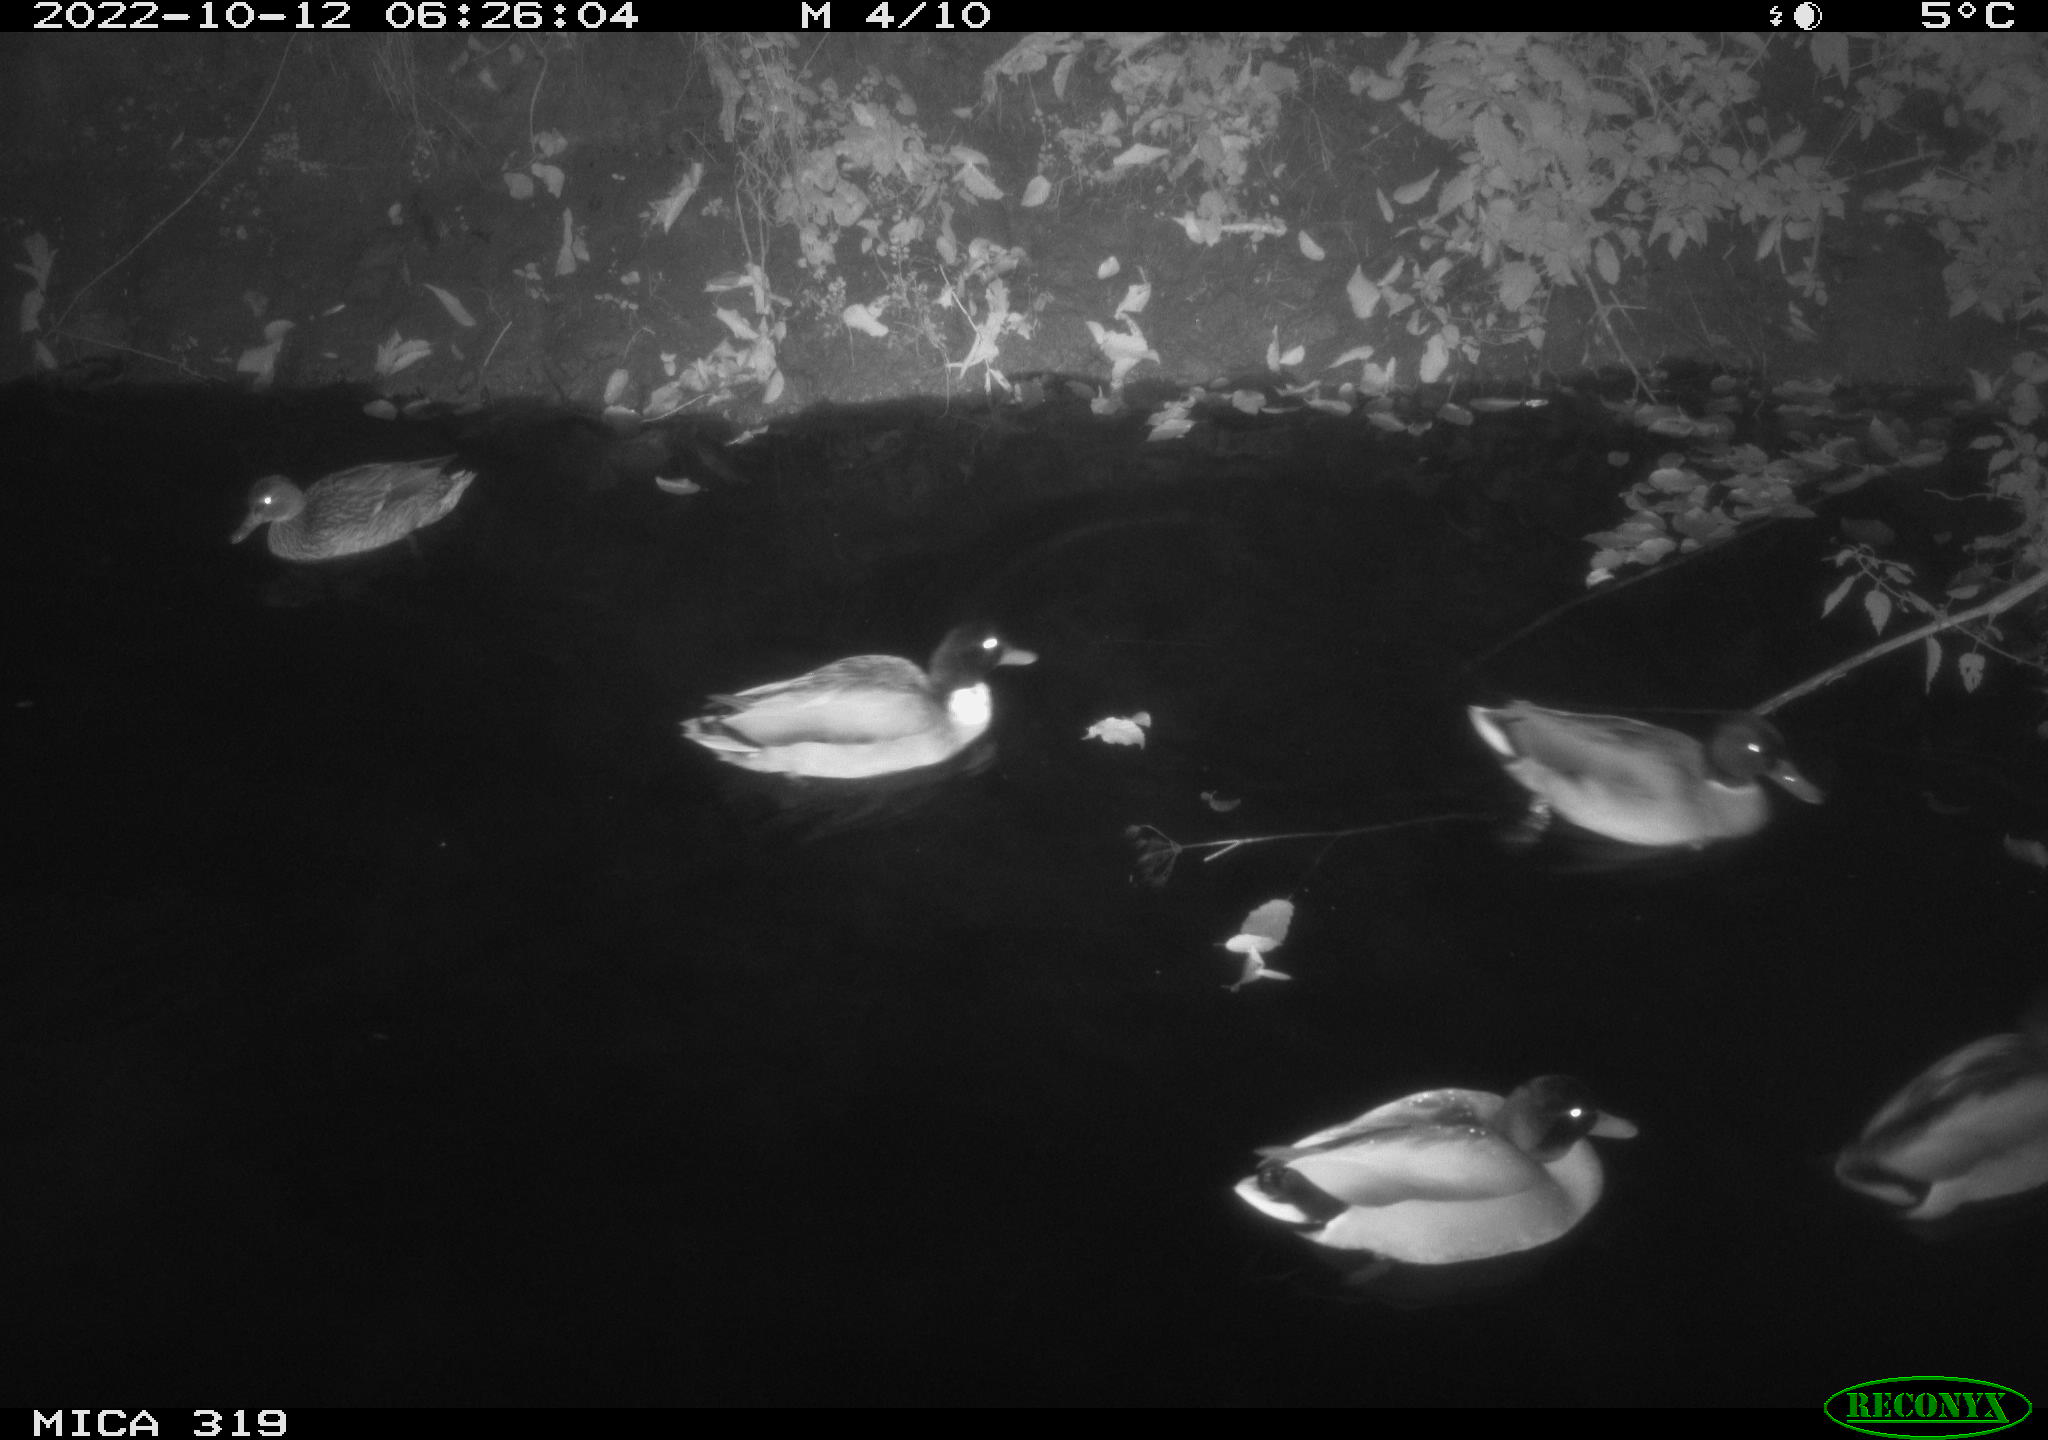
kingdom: Animalia
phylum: Chordata
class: Aves
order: Anseriformes
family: Anatidae
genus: Anas
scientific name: Anas
